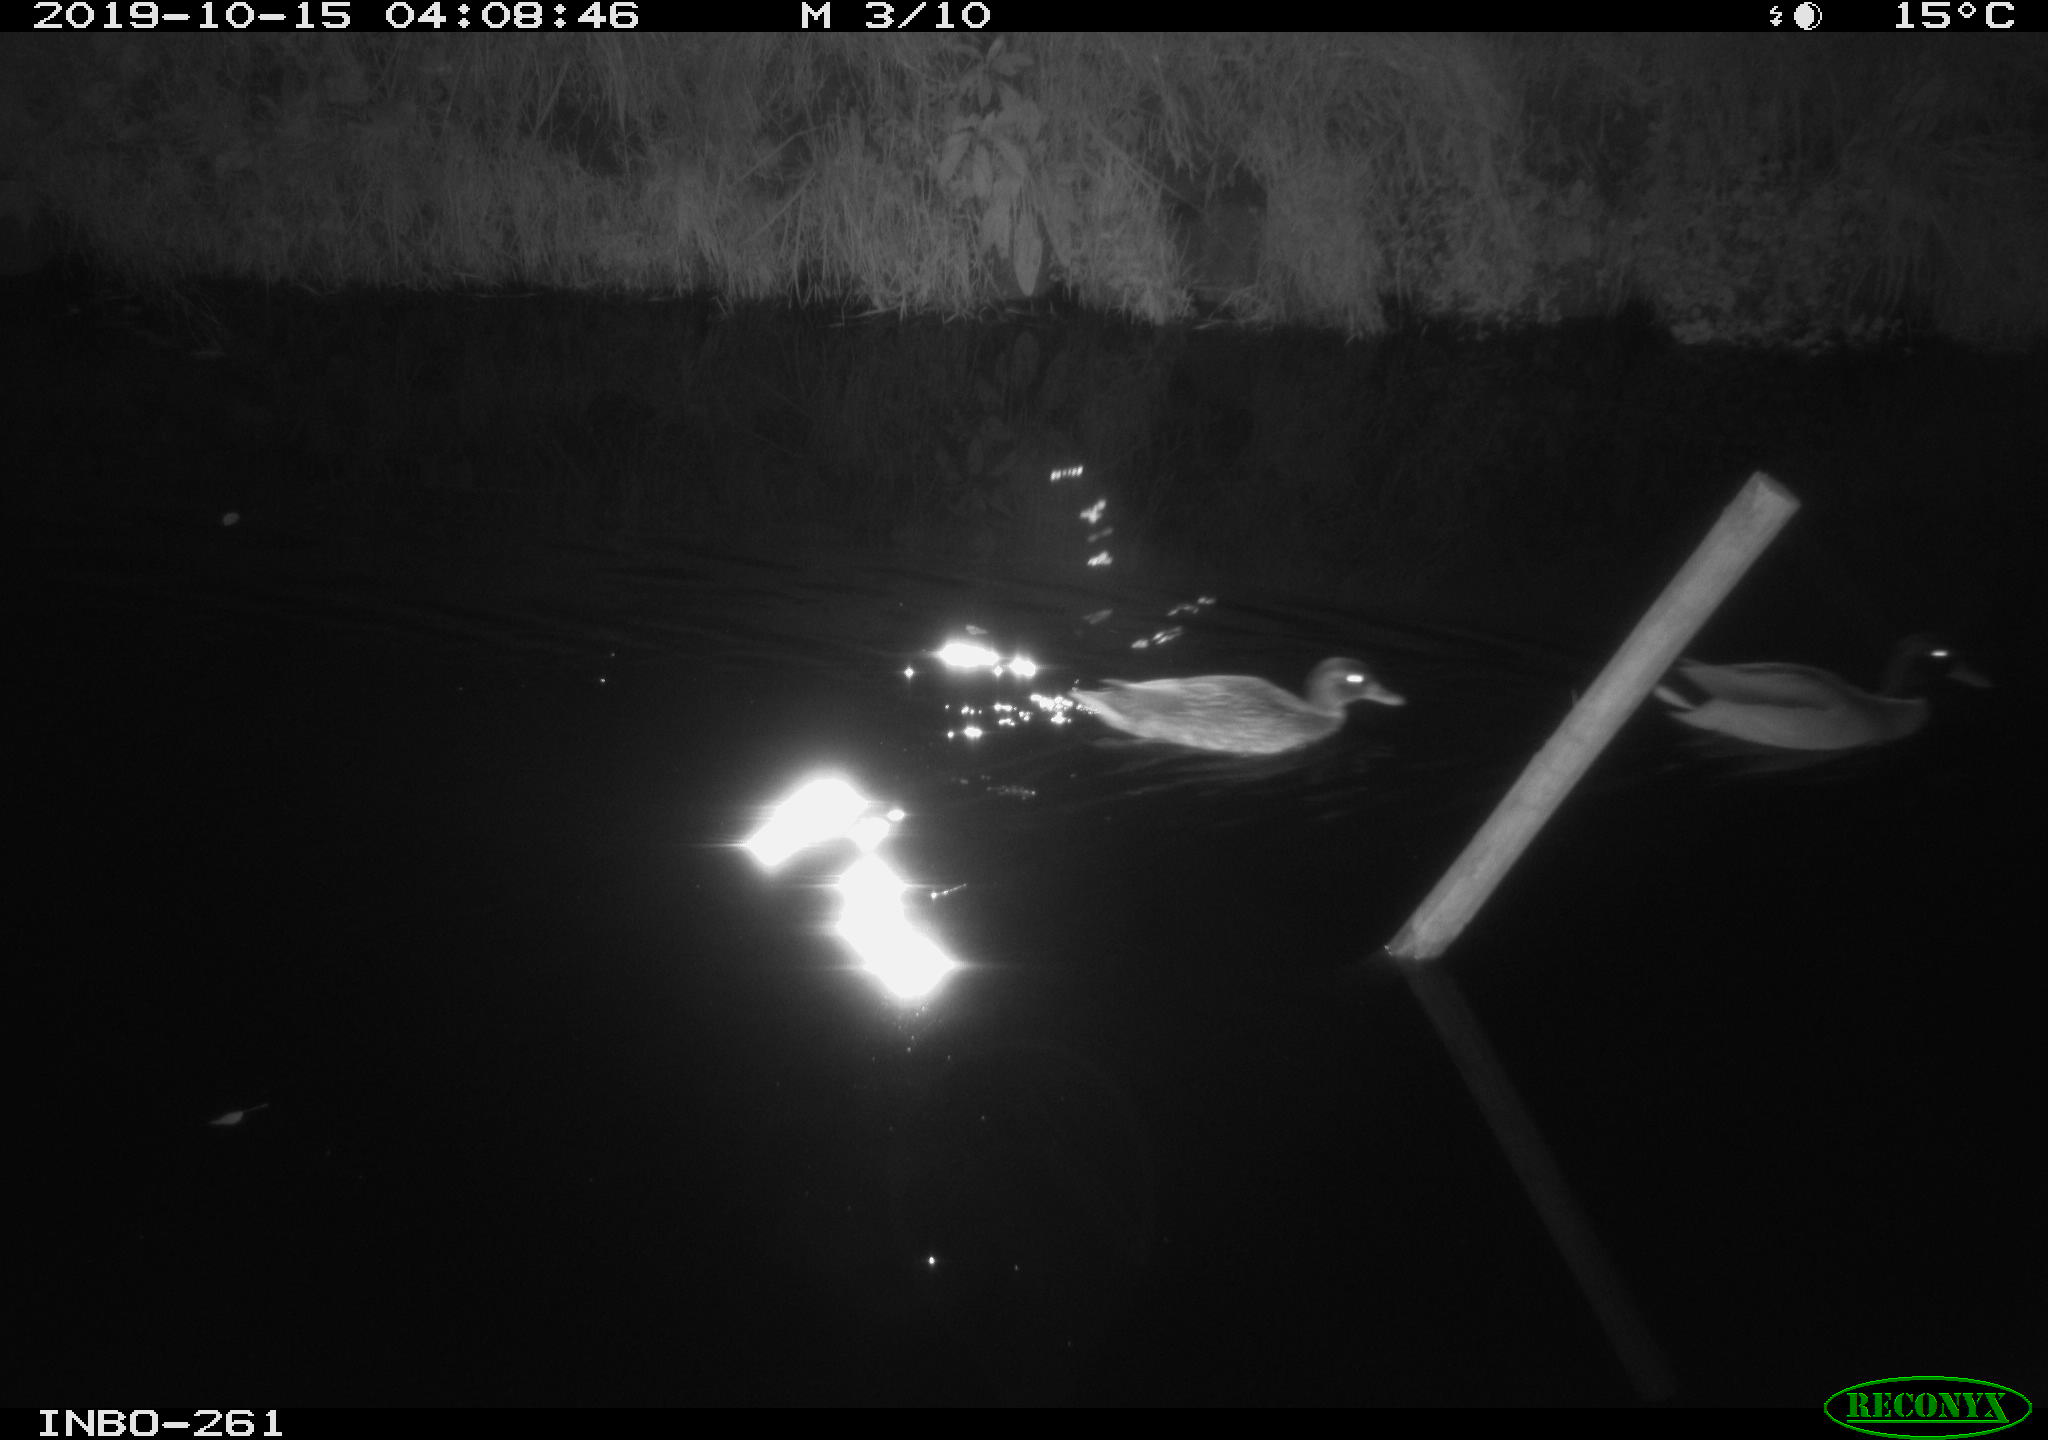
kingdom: Animalia
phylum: Chordata
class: Aves
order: Anseriformes
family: Anatidae
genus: Anas
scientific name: Anas platyrhynchos
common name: Mallard
